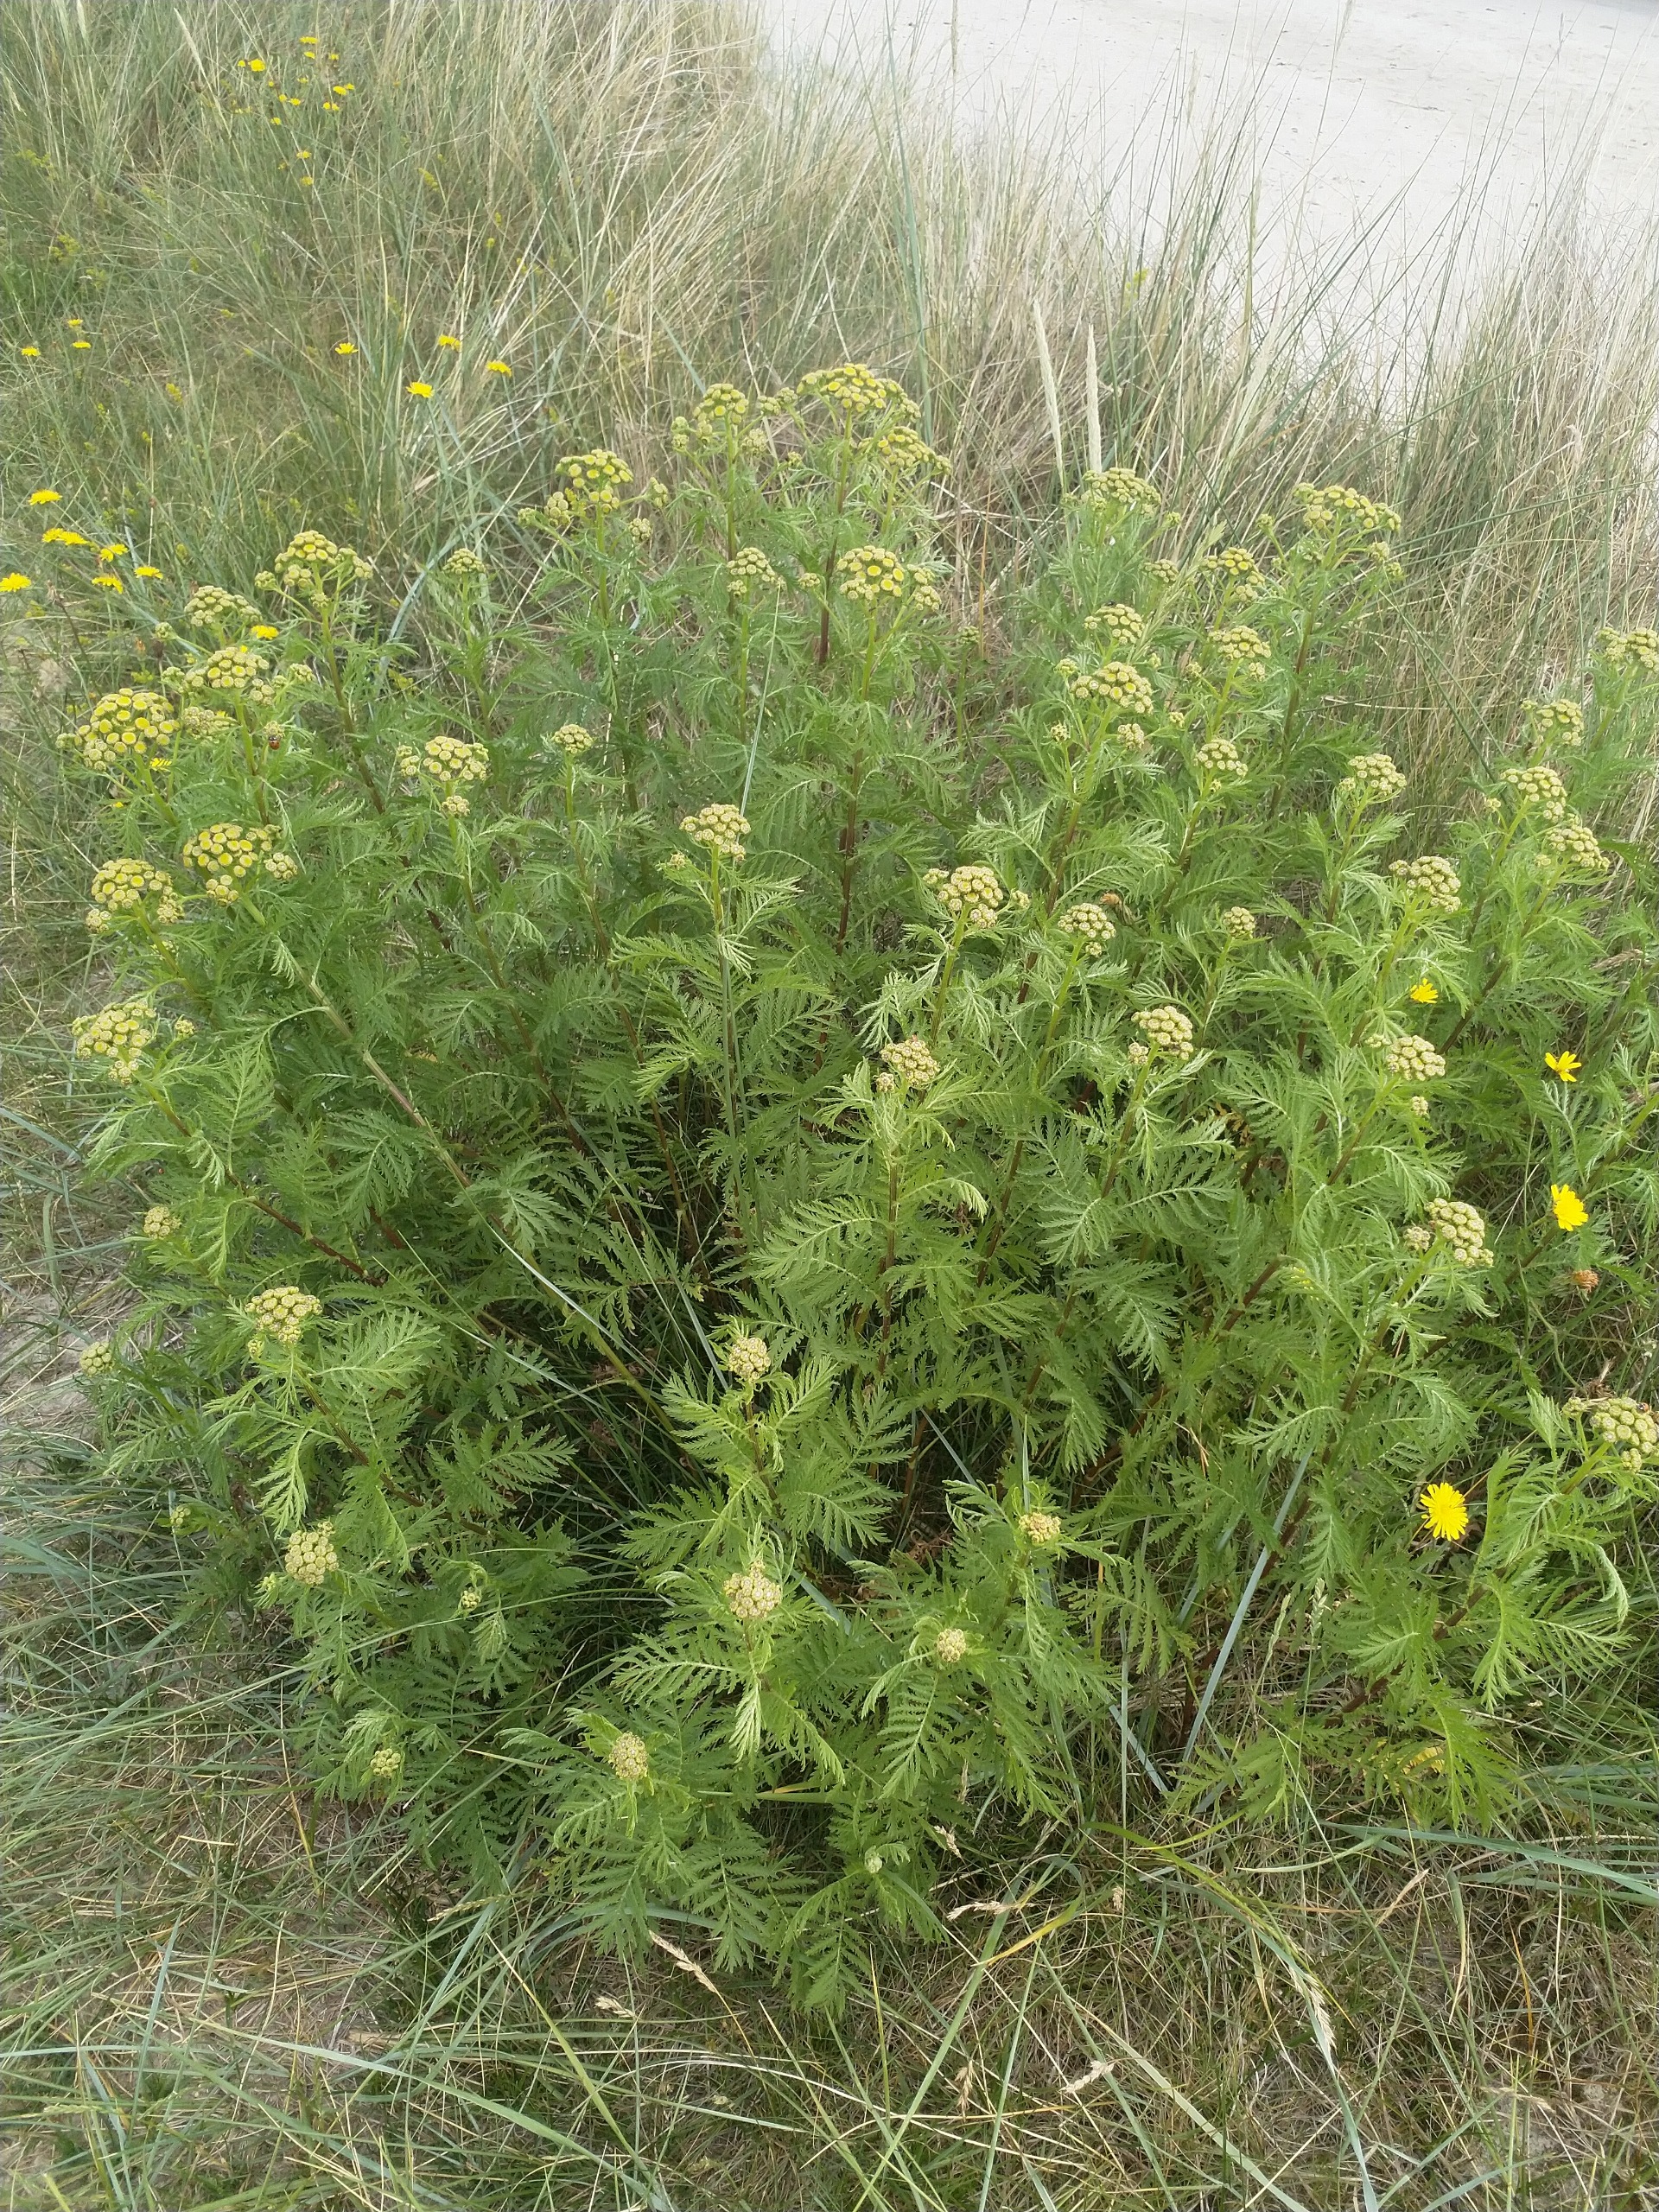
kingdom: Plantae
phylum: Tracheophyta
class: Magnoliopsida
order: Asterales
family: Asteraceae
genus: Tanacetum
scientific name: Tanacetum vulgare
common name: Rejnfan
